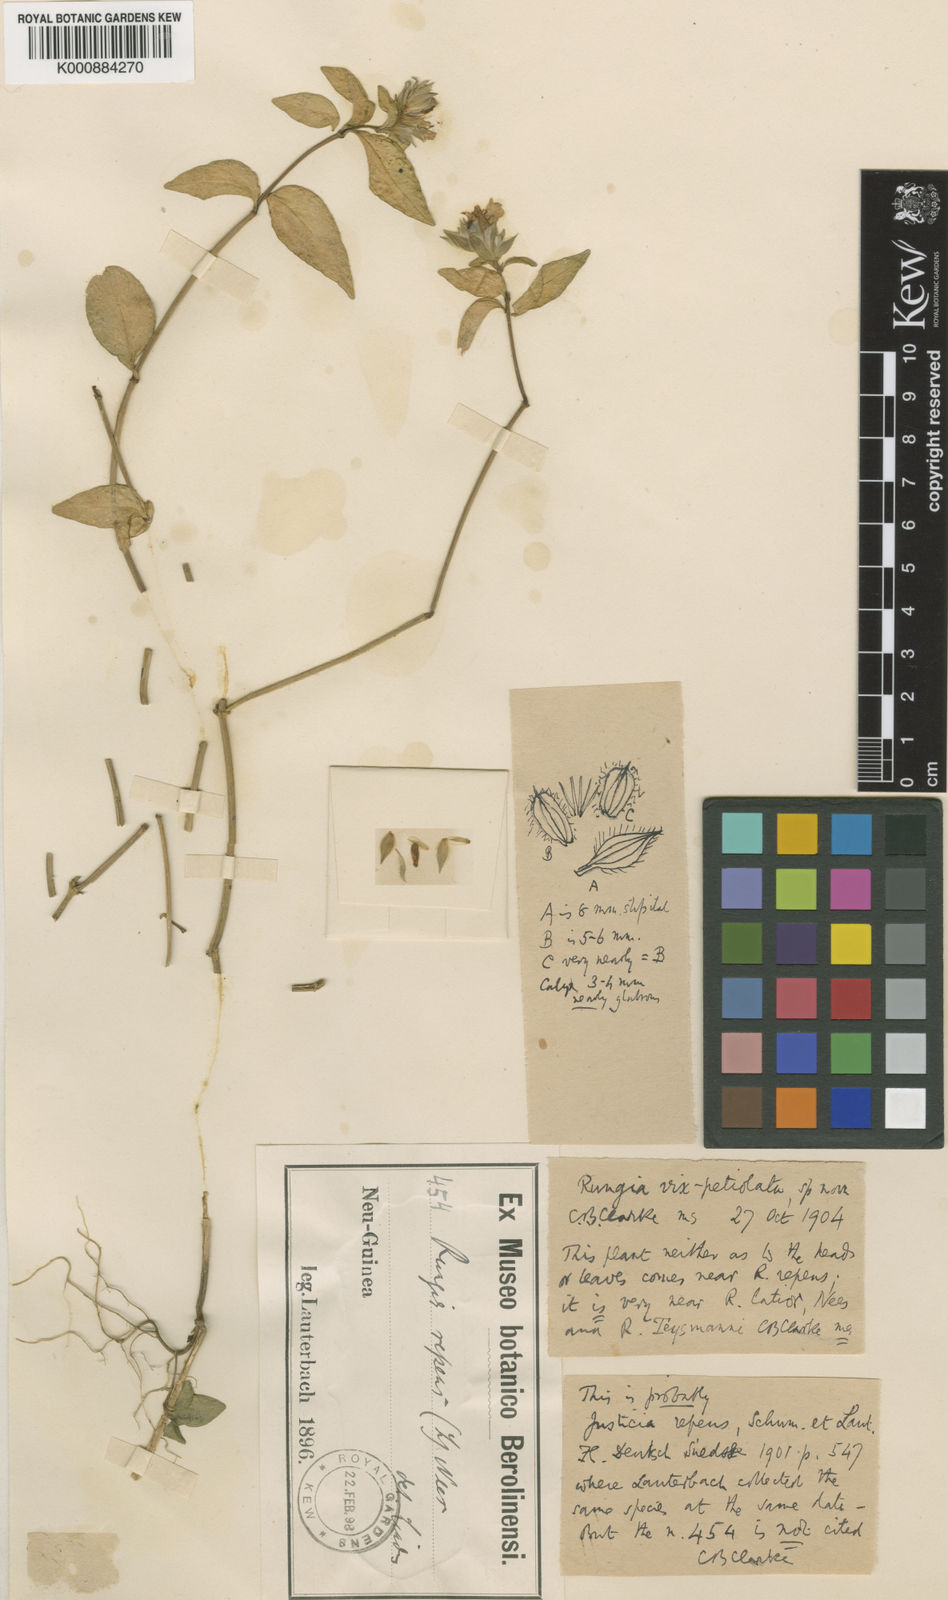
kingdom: Plantae
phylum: Tracheophyta
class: Magnoliopsida
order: Lamiales
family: Acanthaceae
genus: Justicia
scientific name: Justicia
